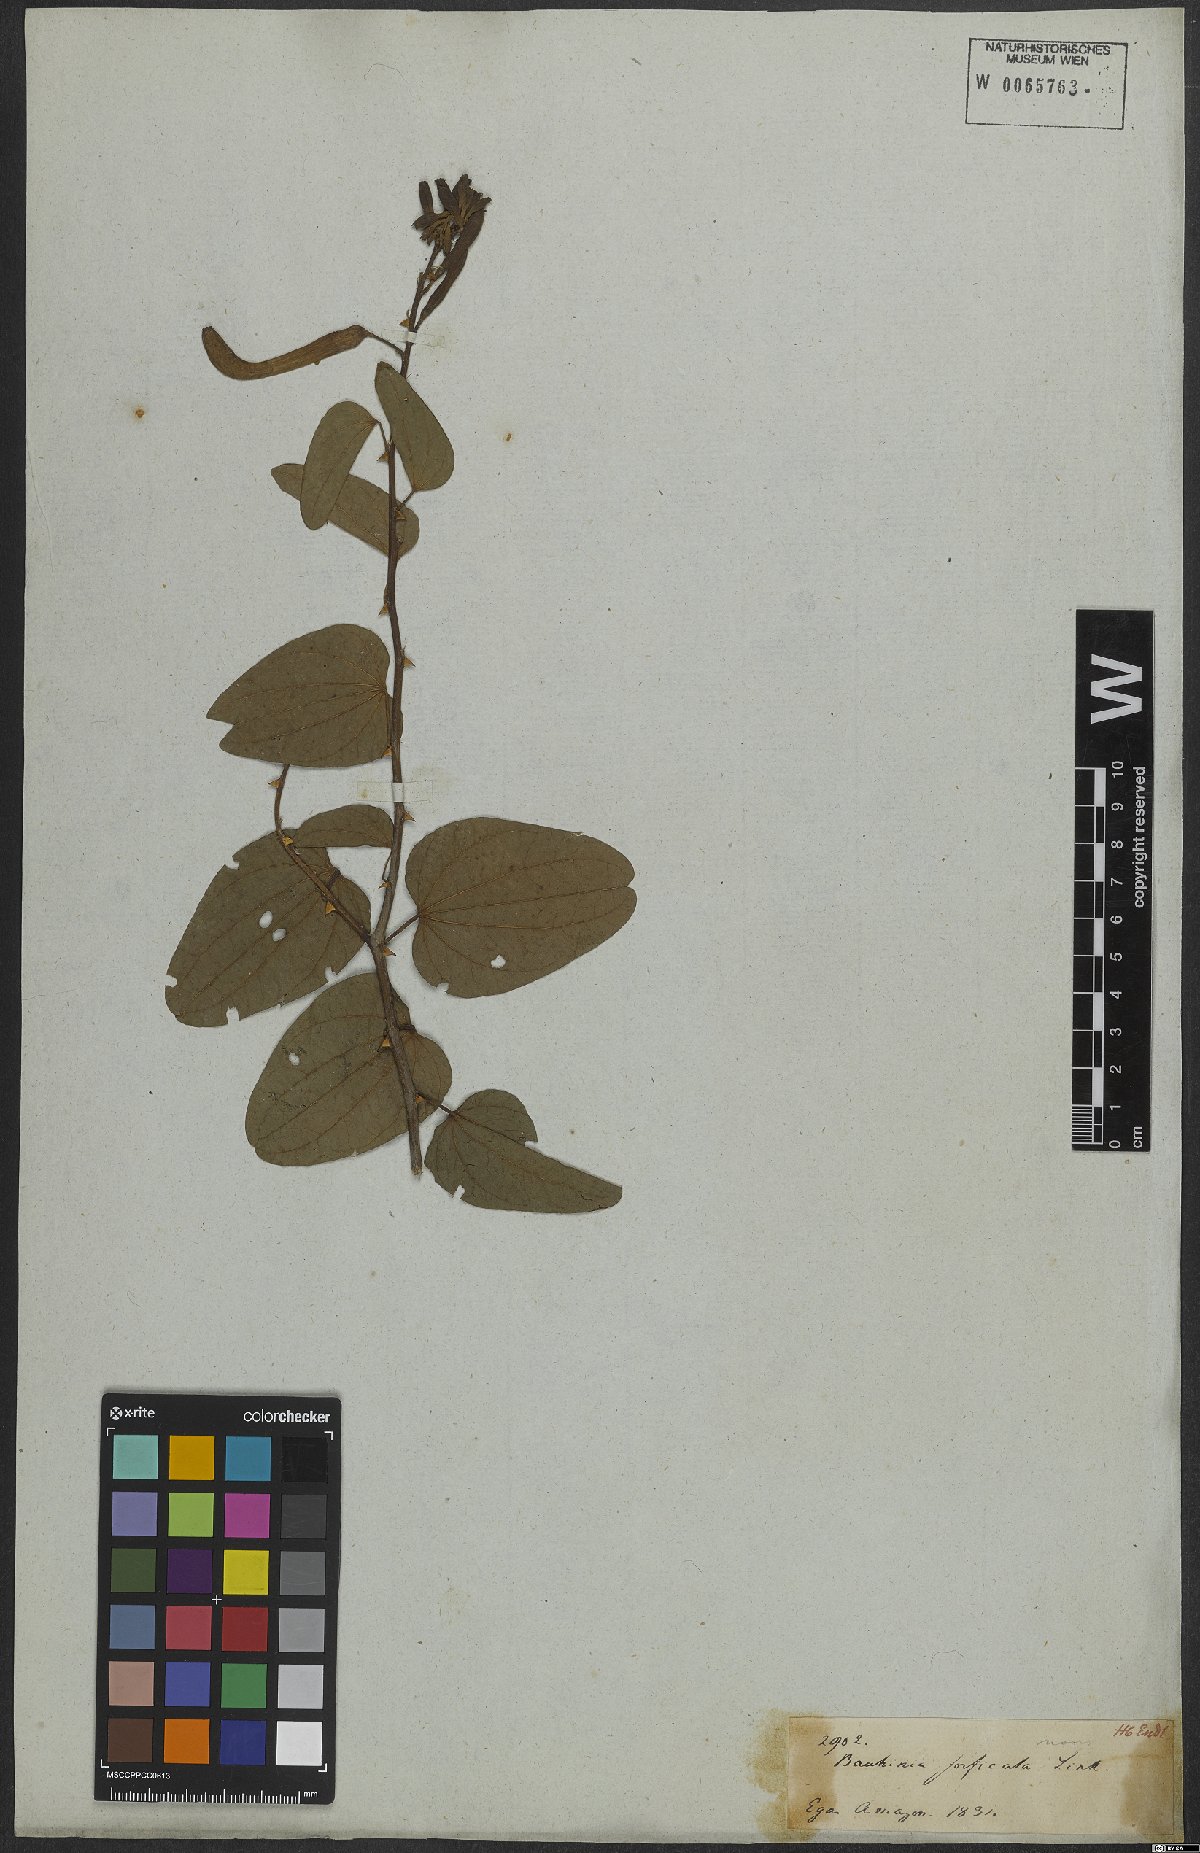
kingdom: Plantae
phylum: Tracheophyta
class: Magnoliopsida
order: Fabales
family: Fabaceae
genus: Bauhinia
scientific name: Bauhinia forficata
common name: Orchid tree
